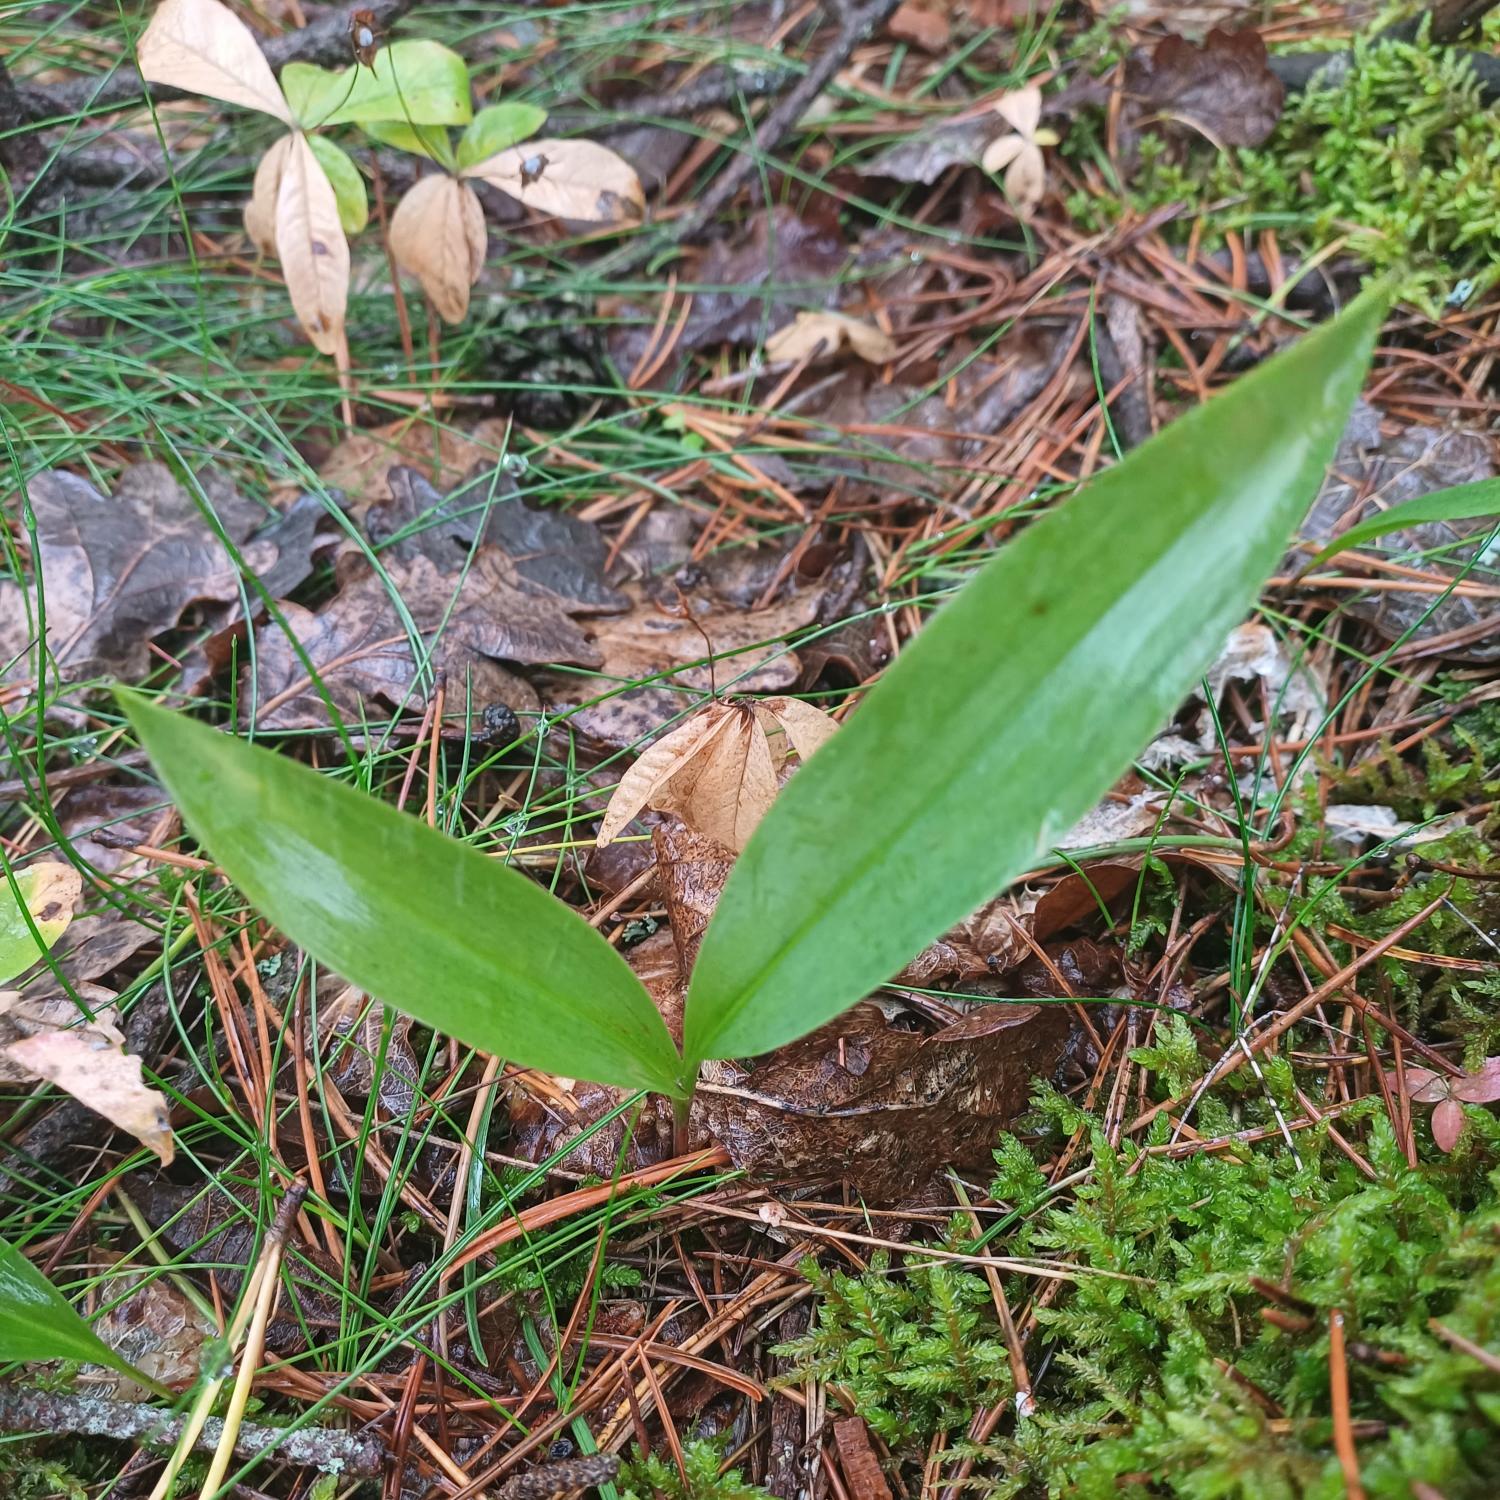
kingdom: Plantae
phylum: Tracheophyta
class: Liliopsida
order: Asparagales
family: Asparagaceae
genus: Convallaria
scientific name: Convallaria majalis
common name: Liljekonval
